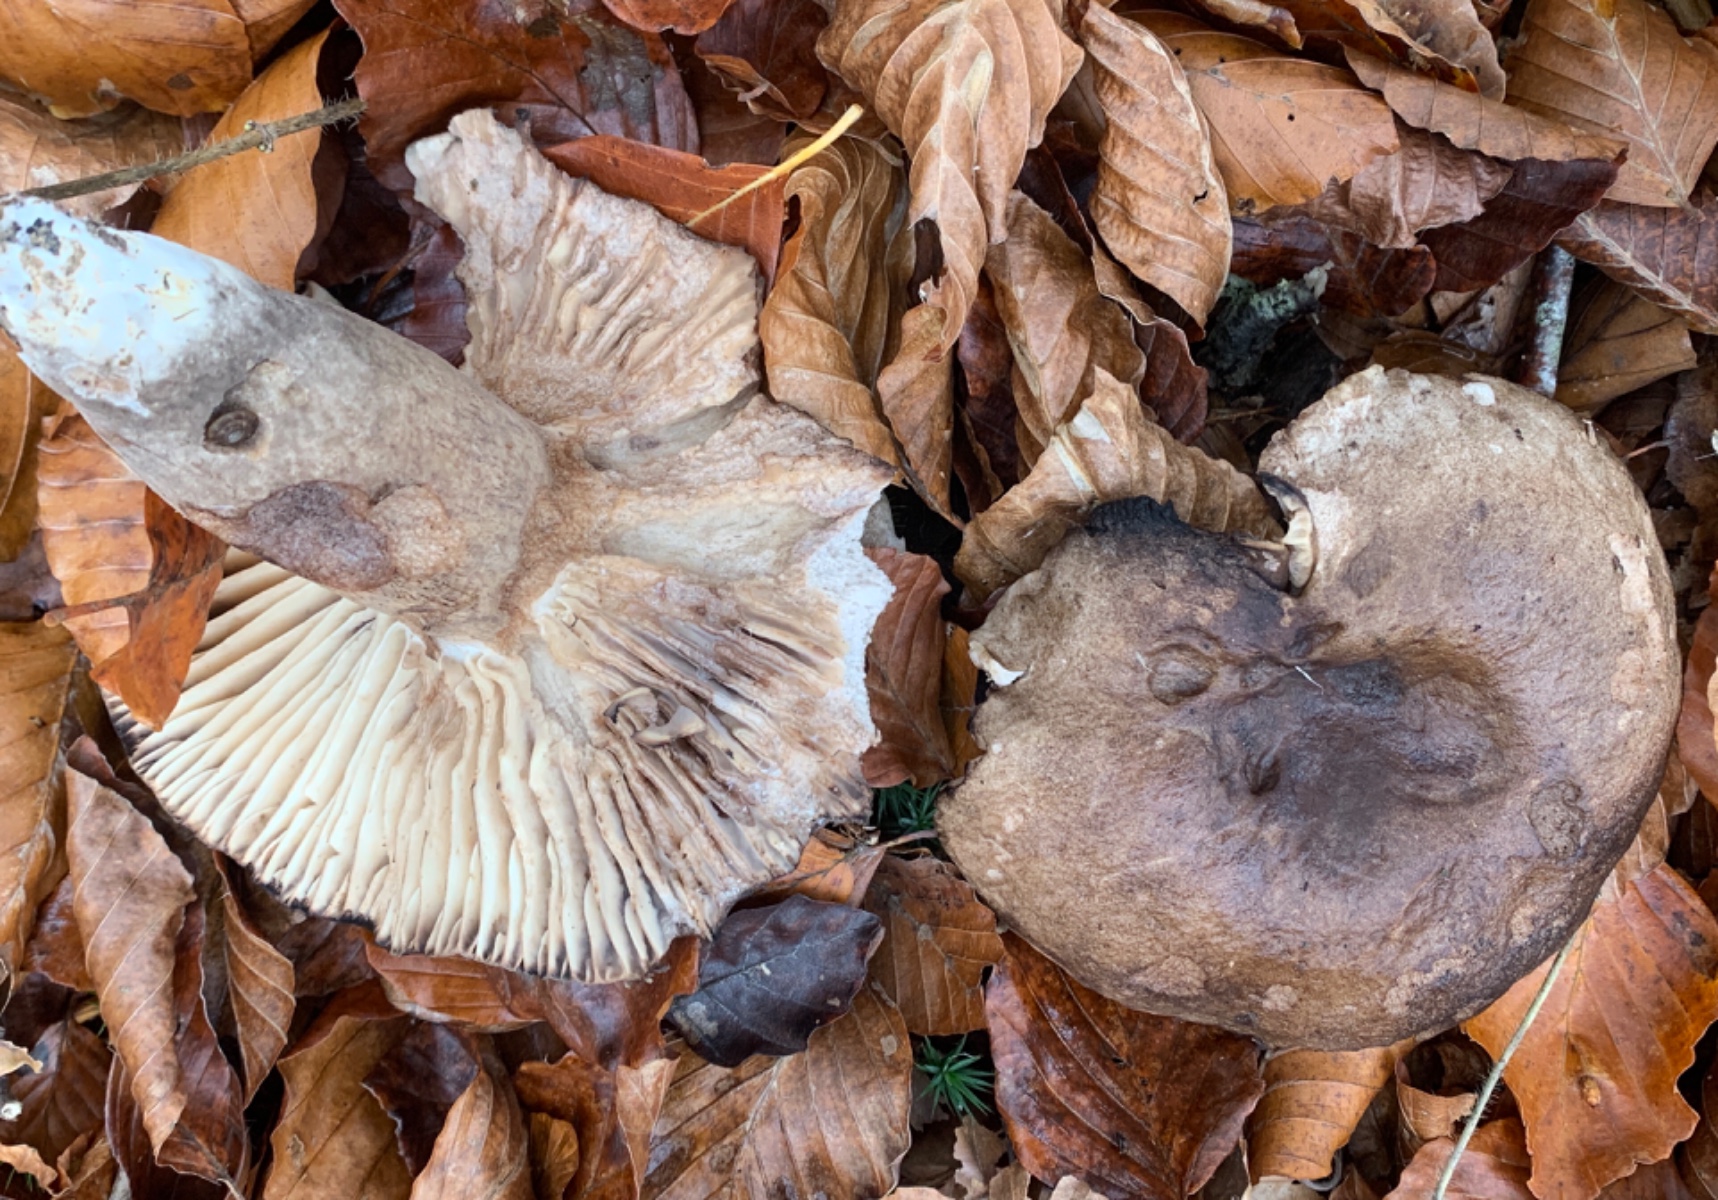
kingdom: Fungi
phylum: Basidiomycota
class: Agaricomycetes
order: Russulales
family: Russulaceae
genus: Russula
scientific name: Russula adusta
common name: sværtende skørhat
